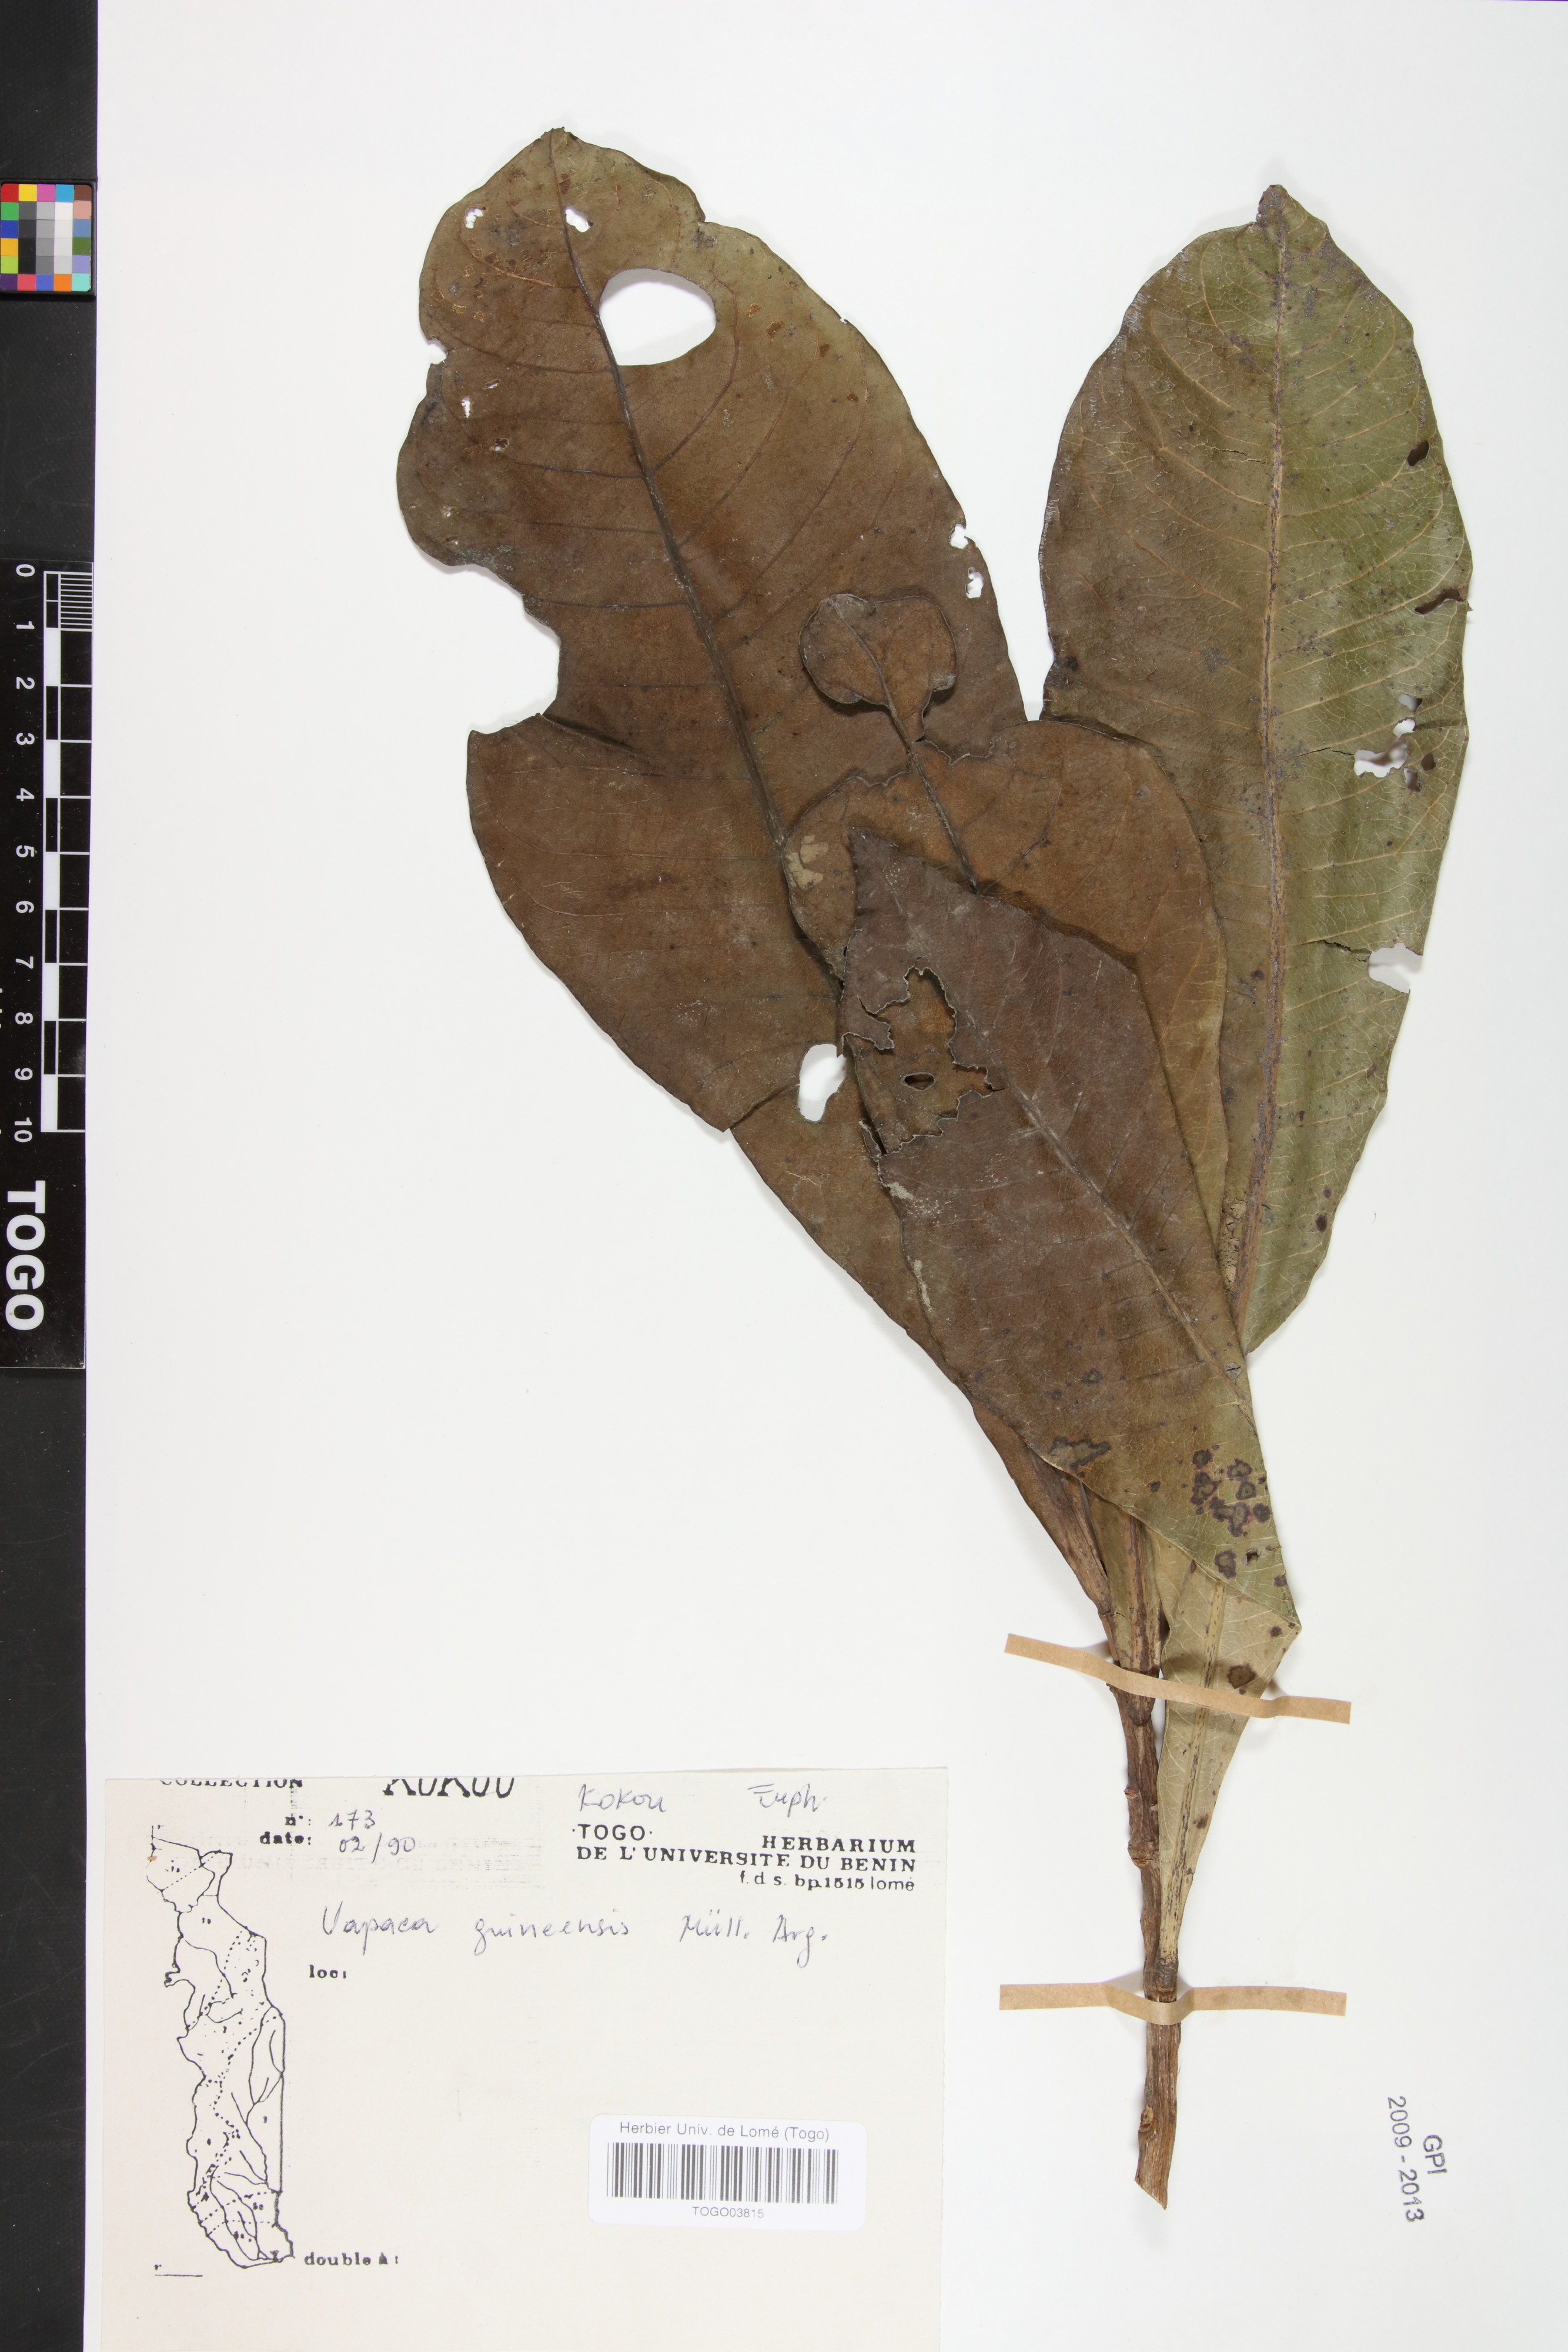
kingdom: Plantae
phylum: Tracheophyta
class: Magnoliopsida
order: Malpighiales
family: Phyllanthaceae
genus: Uapaca
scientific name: Uapaca guineensis
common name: Sugar-plum
